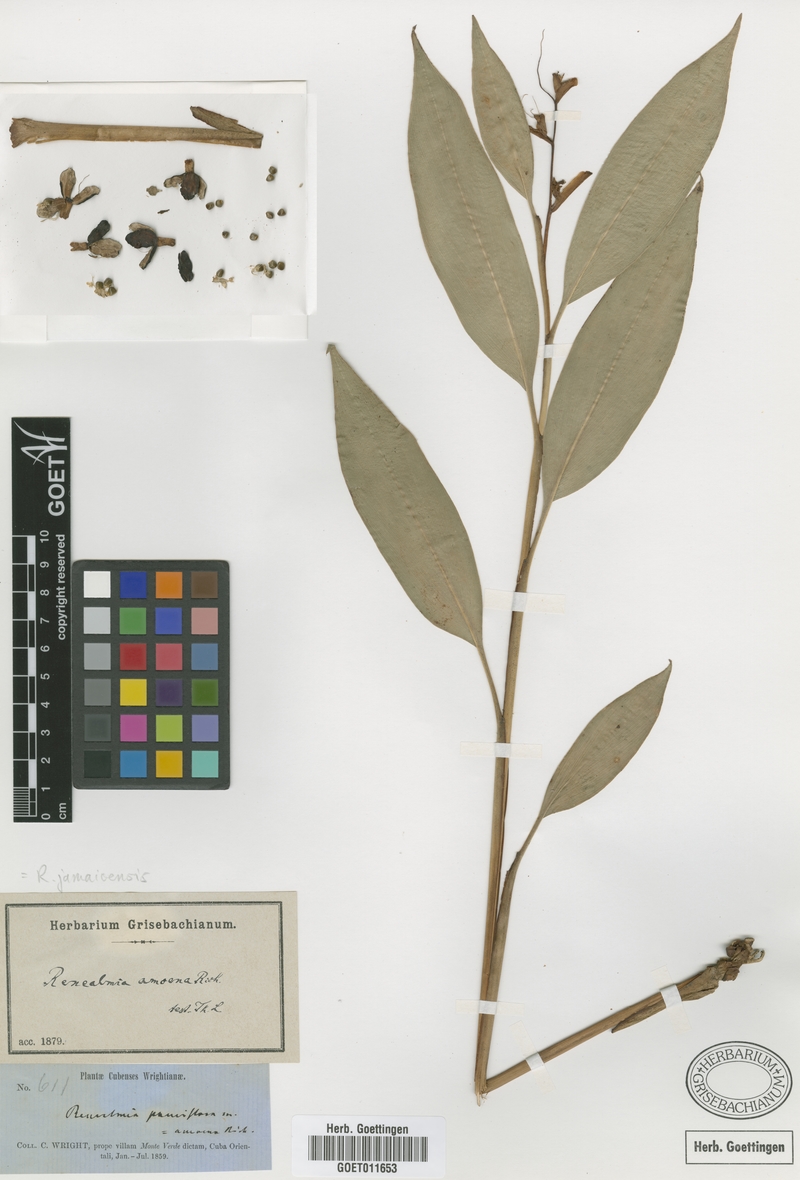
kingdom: Plantae
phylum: Tracheophyta
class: Liliopsida
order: Zingiberales
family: Zingiberaceae
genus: Renealmia
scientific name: Renealmia jamaicensis
